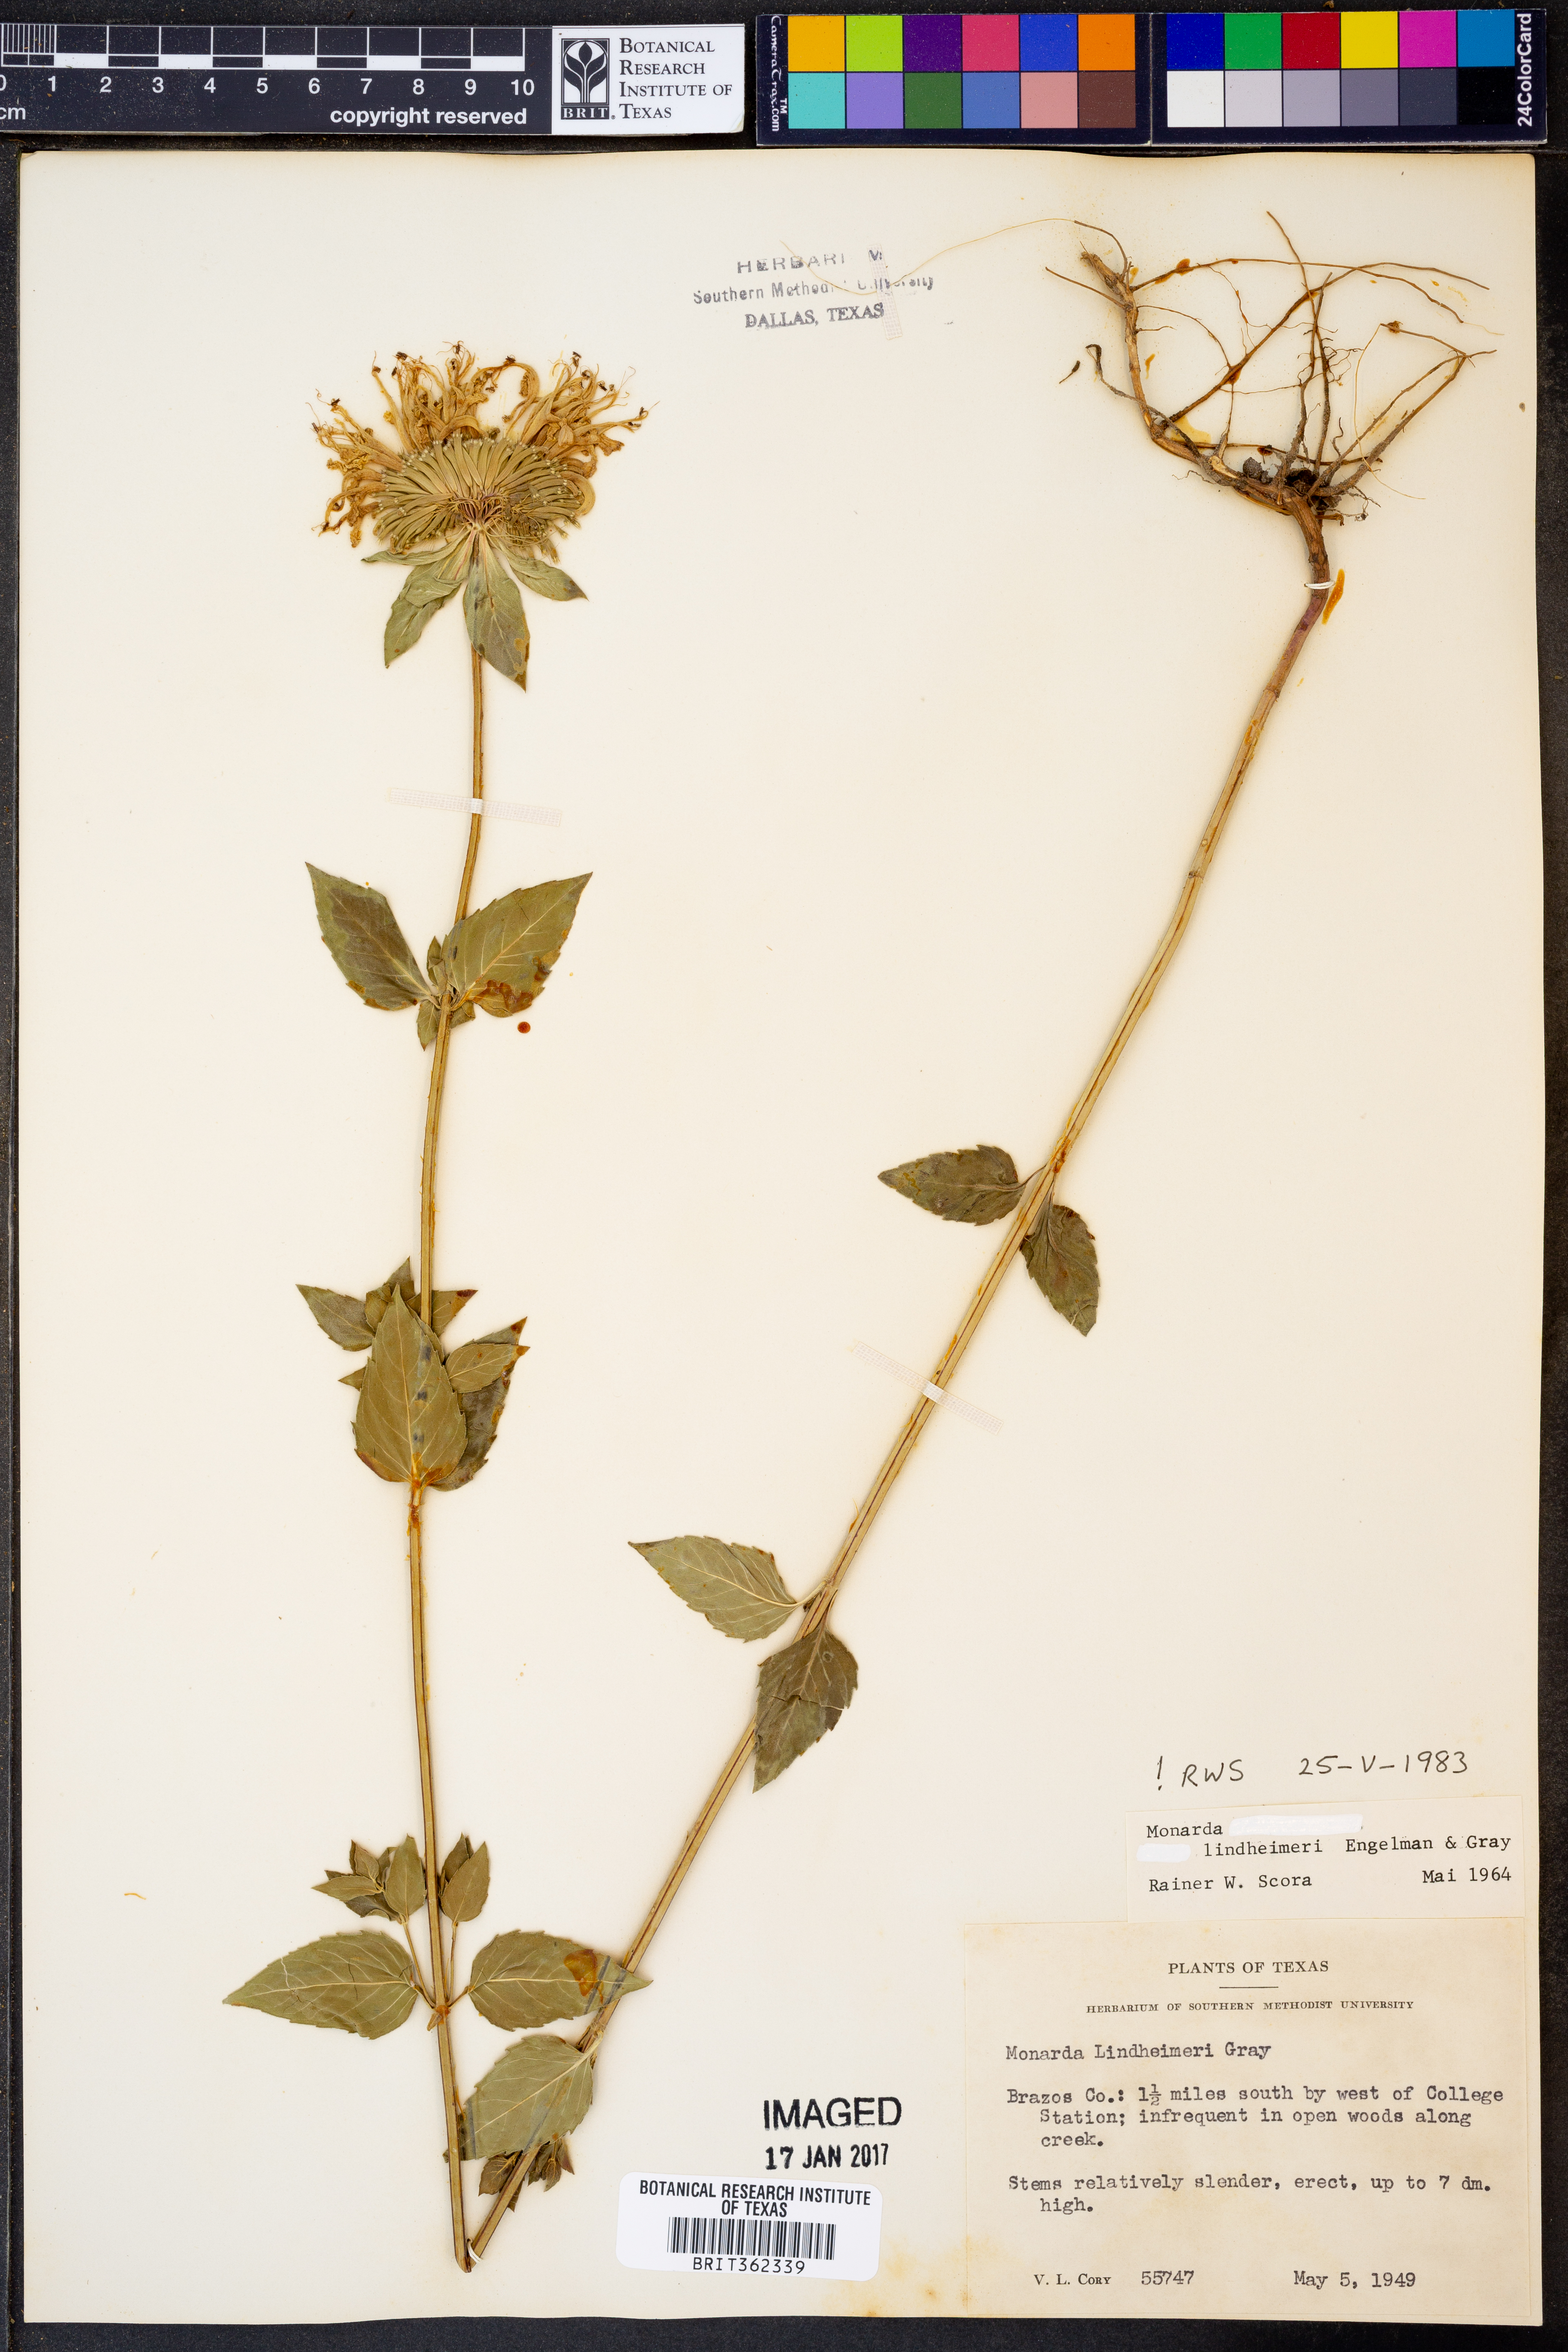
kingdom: Plantae
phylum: Tracheophyta
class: Magnoliopsida
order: Lamiales
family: Lamiaceae
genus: Monarda
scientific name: Monarda lindheimeri
